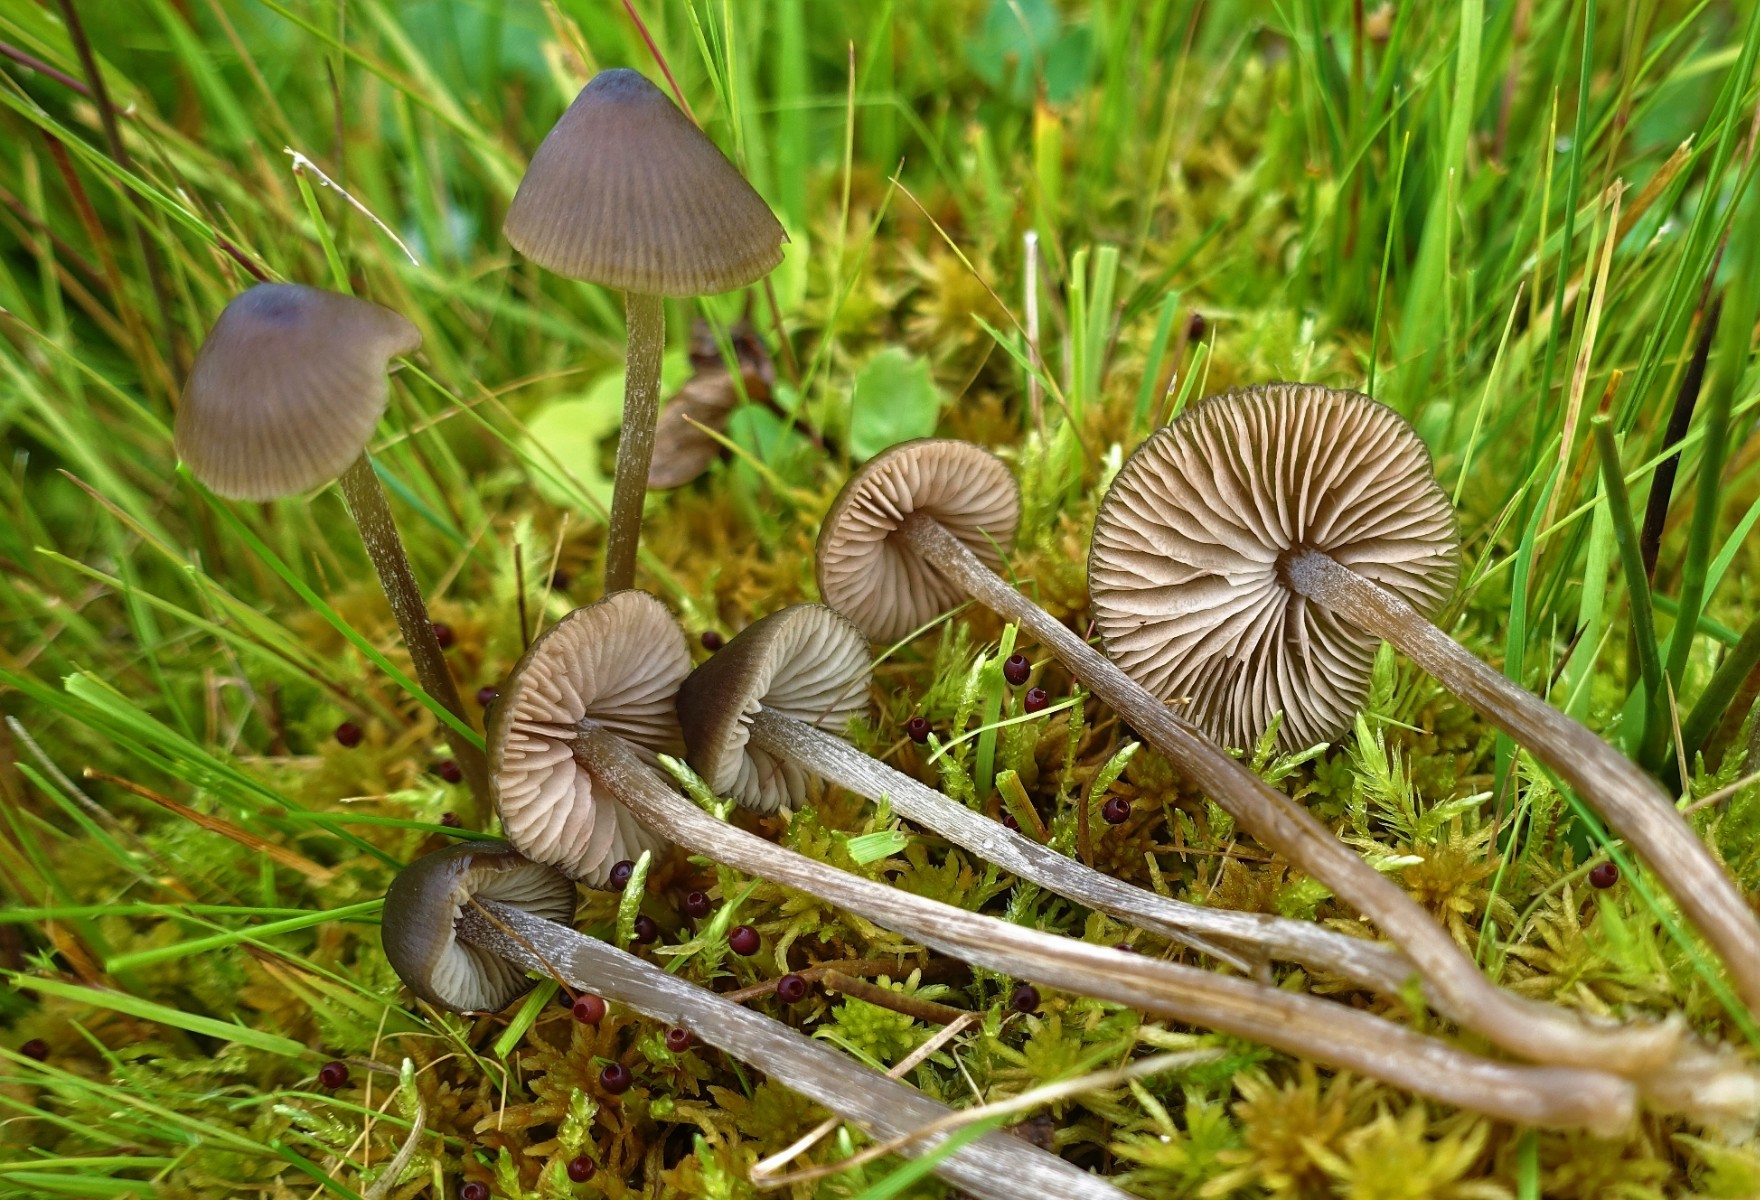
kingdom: Fungi
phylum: Basidiomycota
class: Agaricomycetes
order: Agaricales
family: Entolomataceae
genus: Entoloma
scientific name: Entoloma cuspidiferum
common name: ræddike-rødblad
